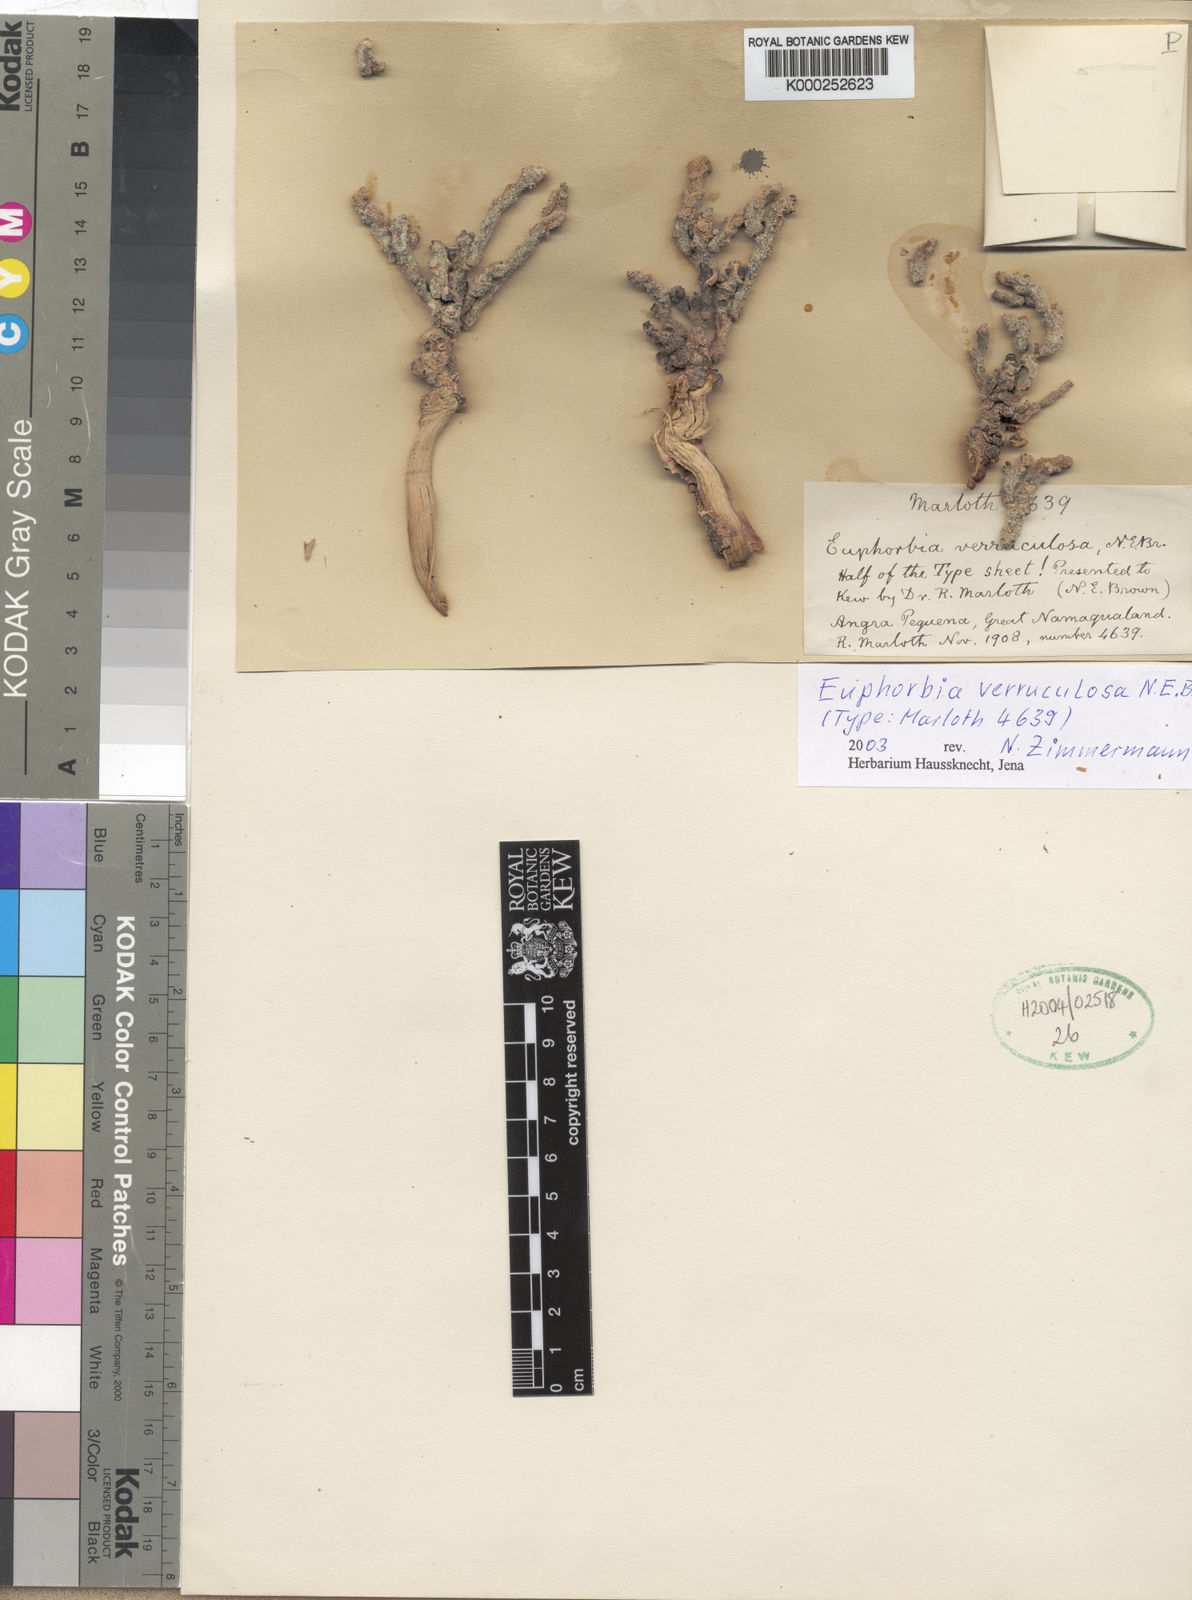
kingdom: Plantae
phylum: Tracheophyta
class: Magnoliopsida
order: Malpighiales
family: Euphorbiaceae
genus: Euphorbia
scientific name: Euphorbia verruculosa
